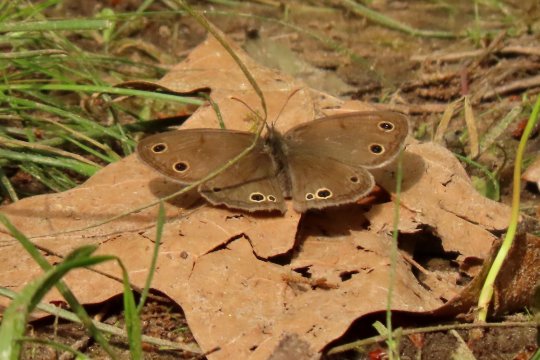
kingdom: Animalia
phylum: Arthropoda
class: Insecta
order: Lepidoptera
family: Nymphalidae
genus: Euptychia
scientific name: Euptychia cymela
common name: Little Wood Satyr
